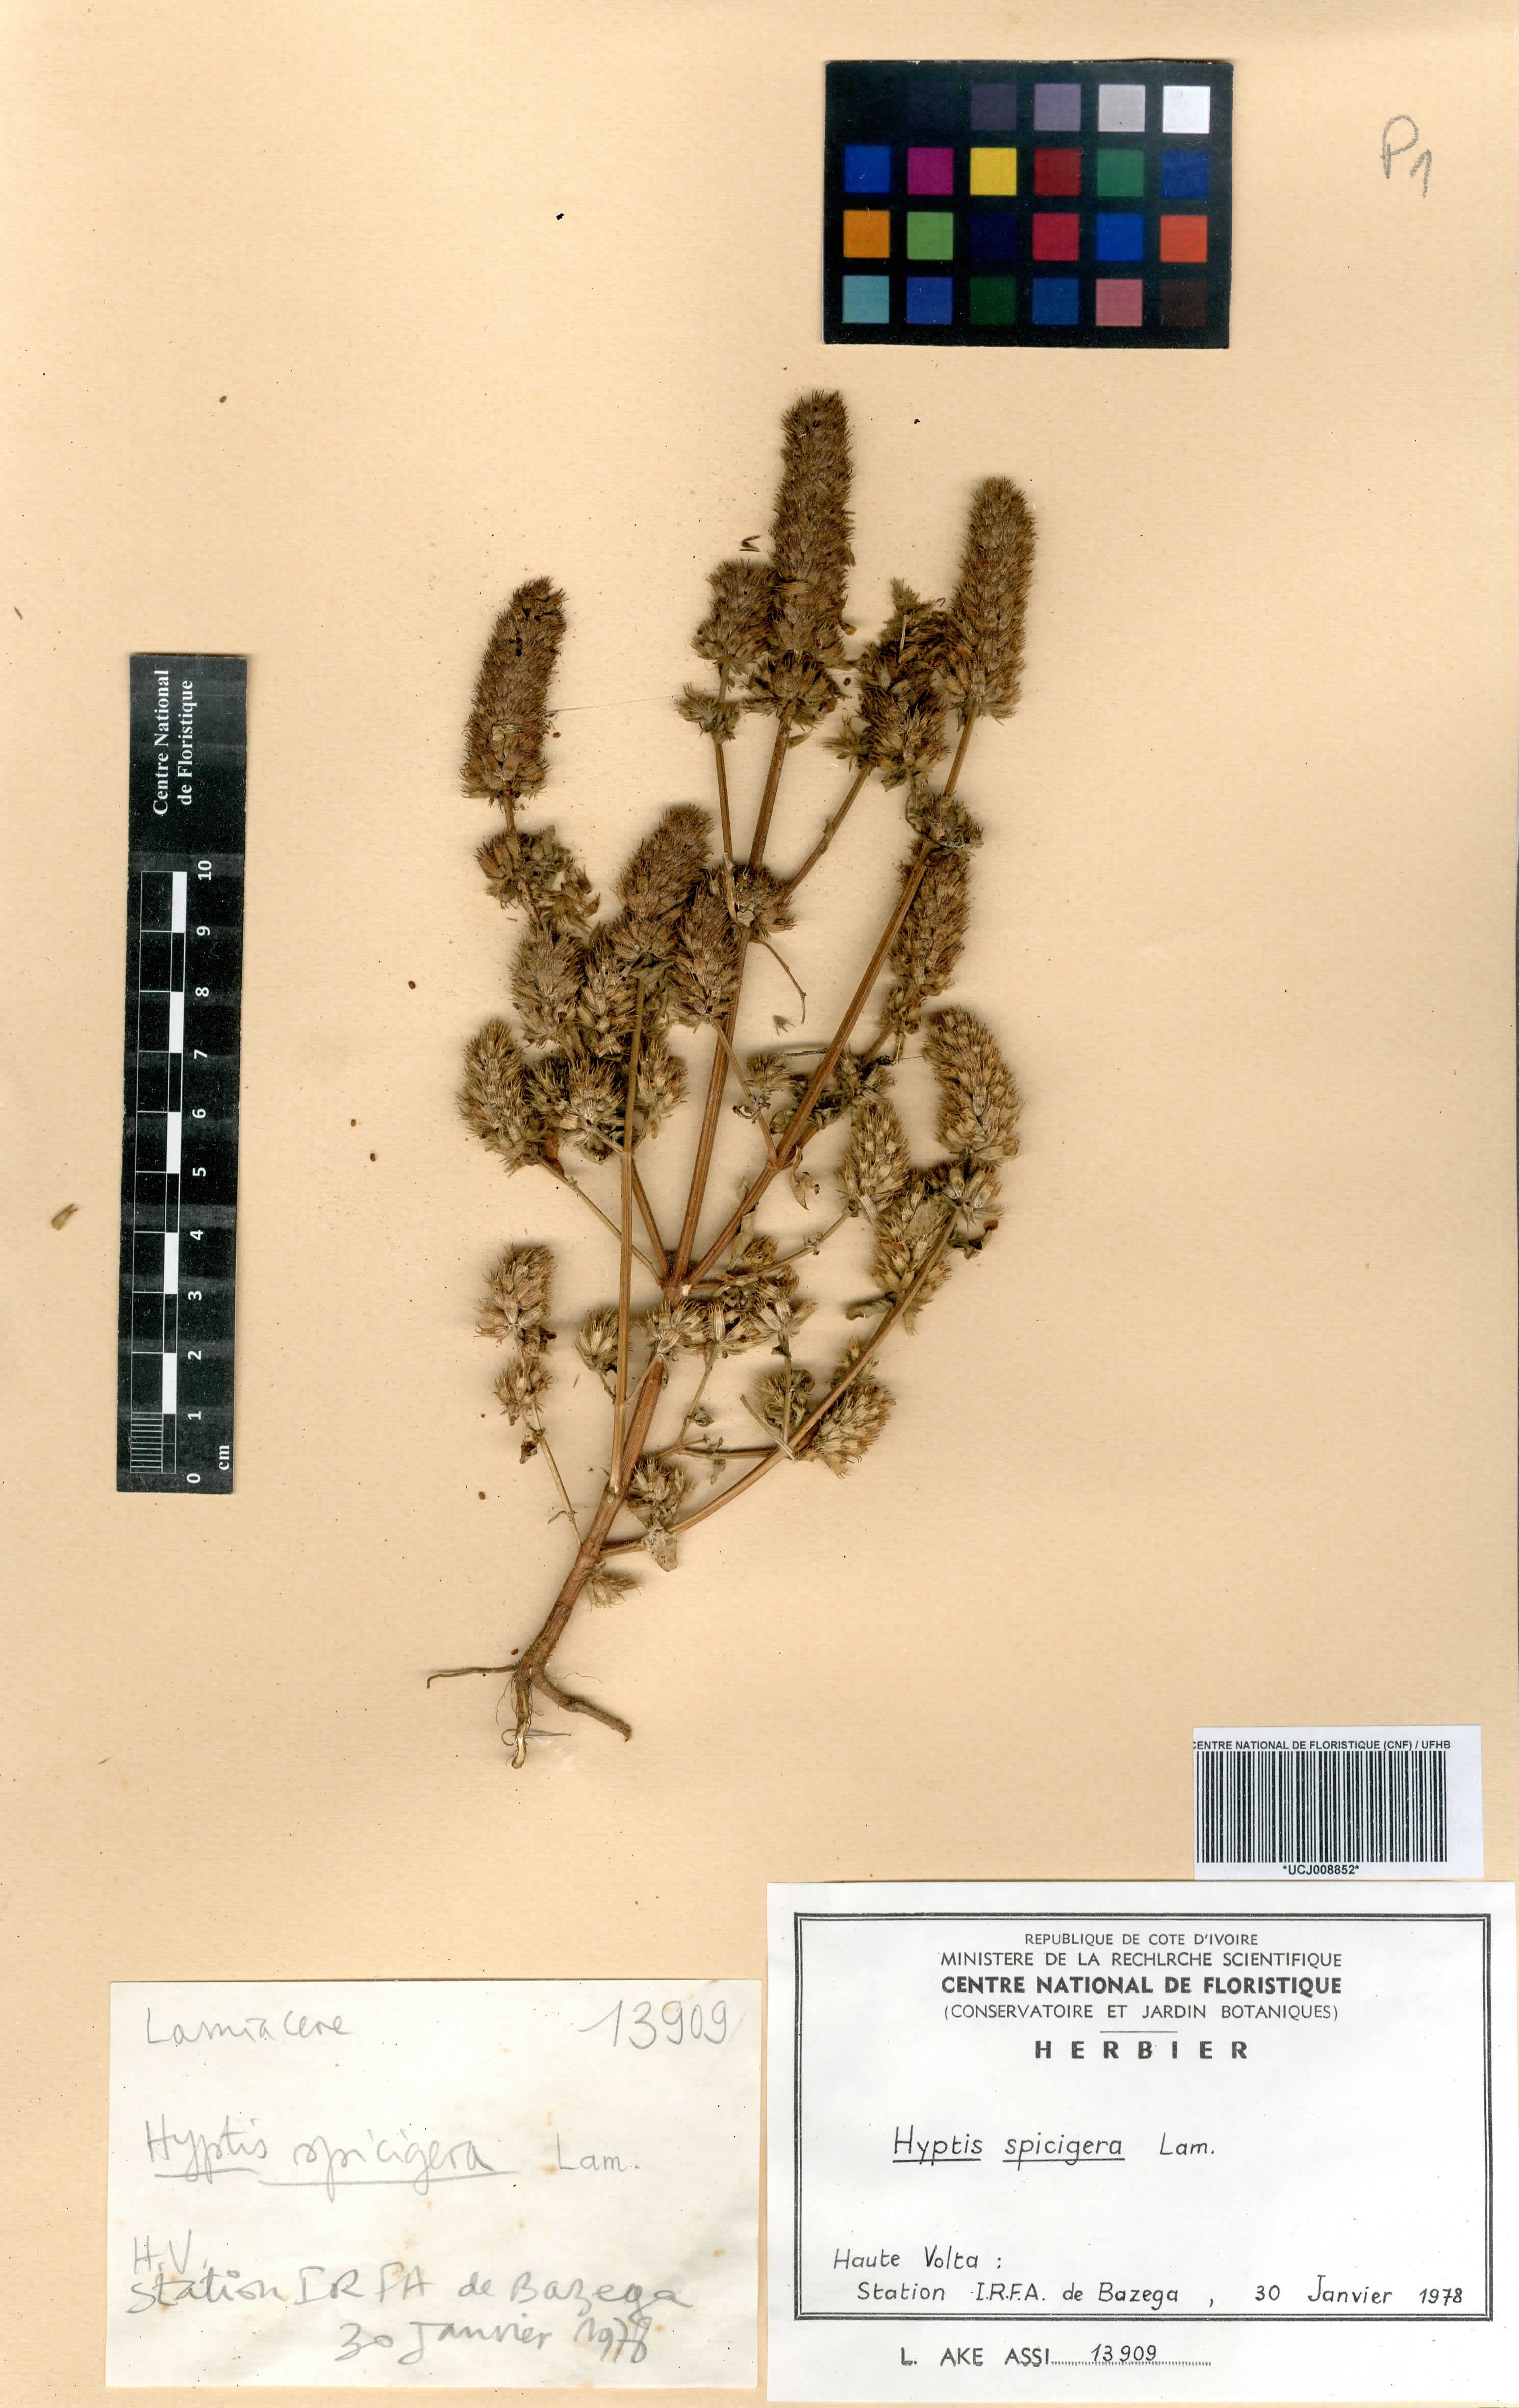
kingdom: Plantae
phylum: Tracheophyta
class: Magnoliopsida
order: Lamiales
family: Lamiaceae
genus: Cantinoa
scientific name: Cantinoa americana
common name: Black-sesame
